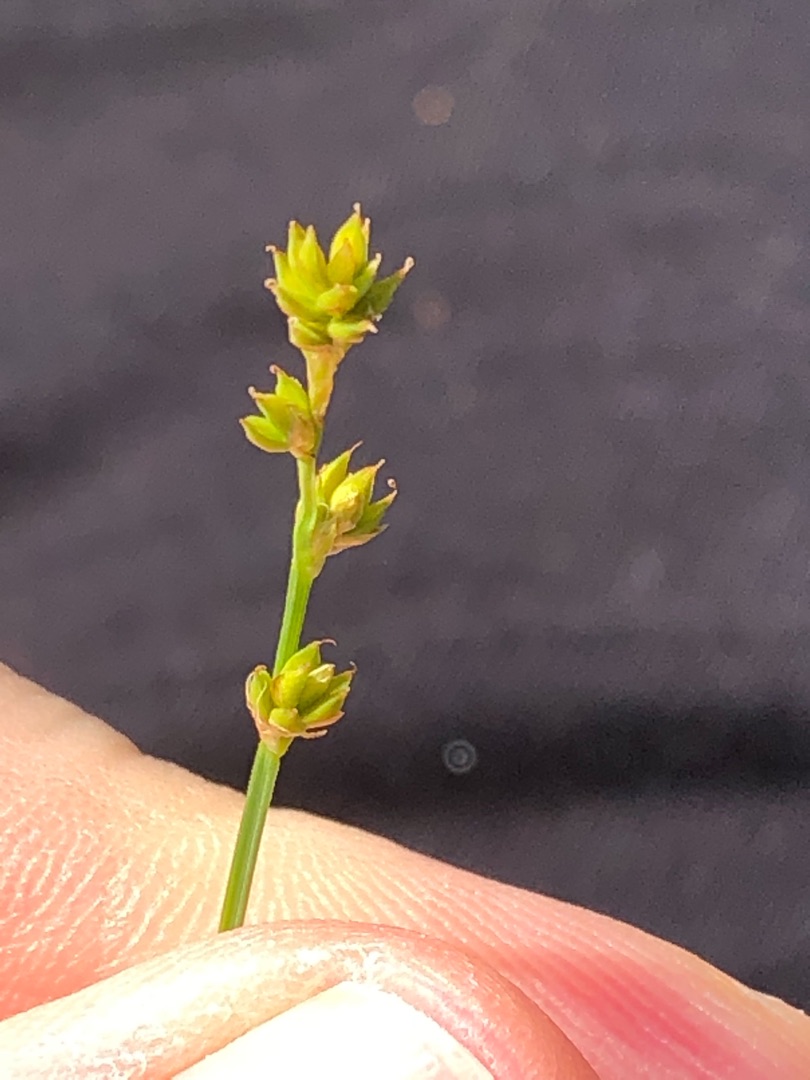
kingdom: Plantae
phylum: Tracheophyta
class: Liliopsida
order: Poales
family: Cyperaceae
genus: Carex
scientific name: Carex canescens
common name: Grå star
